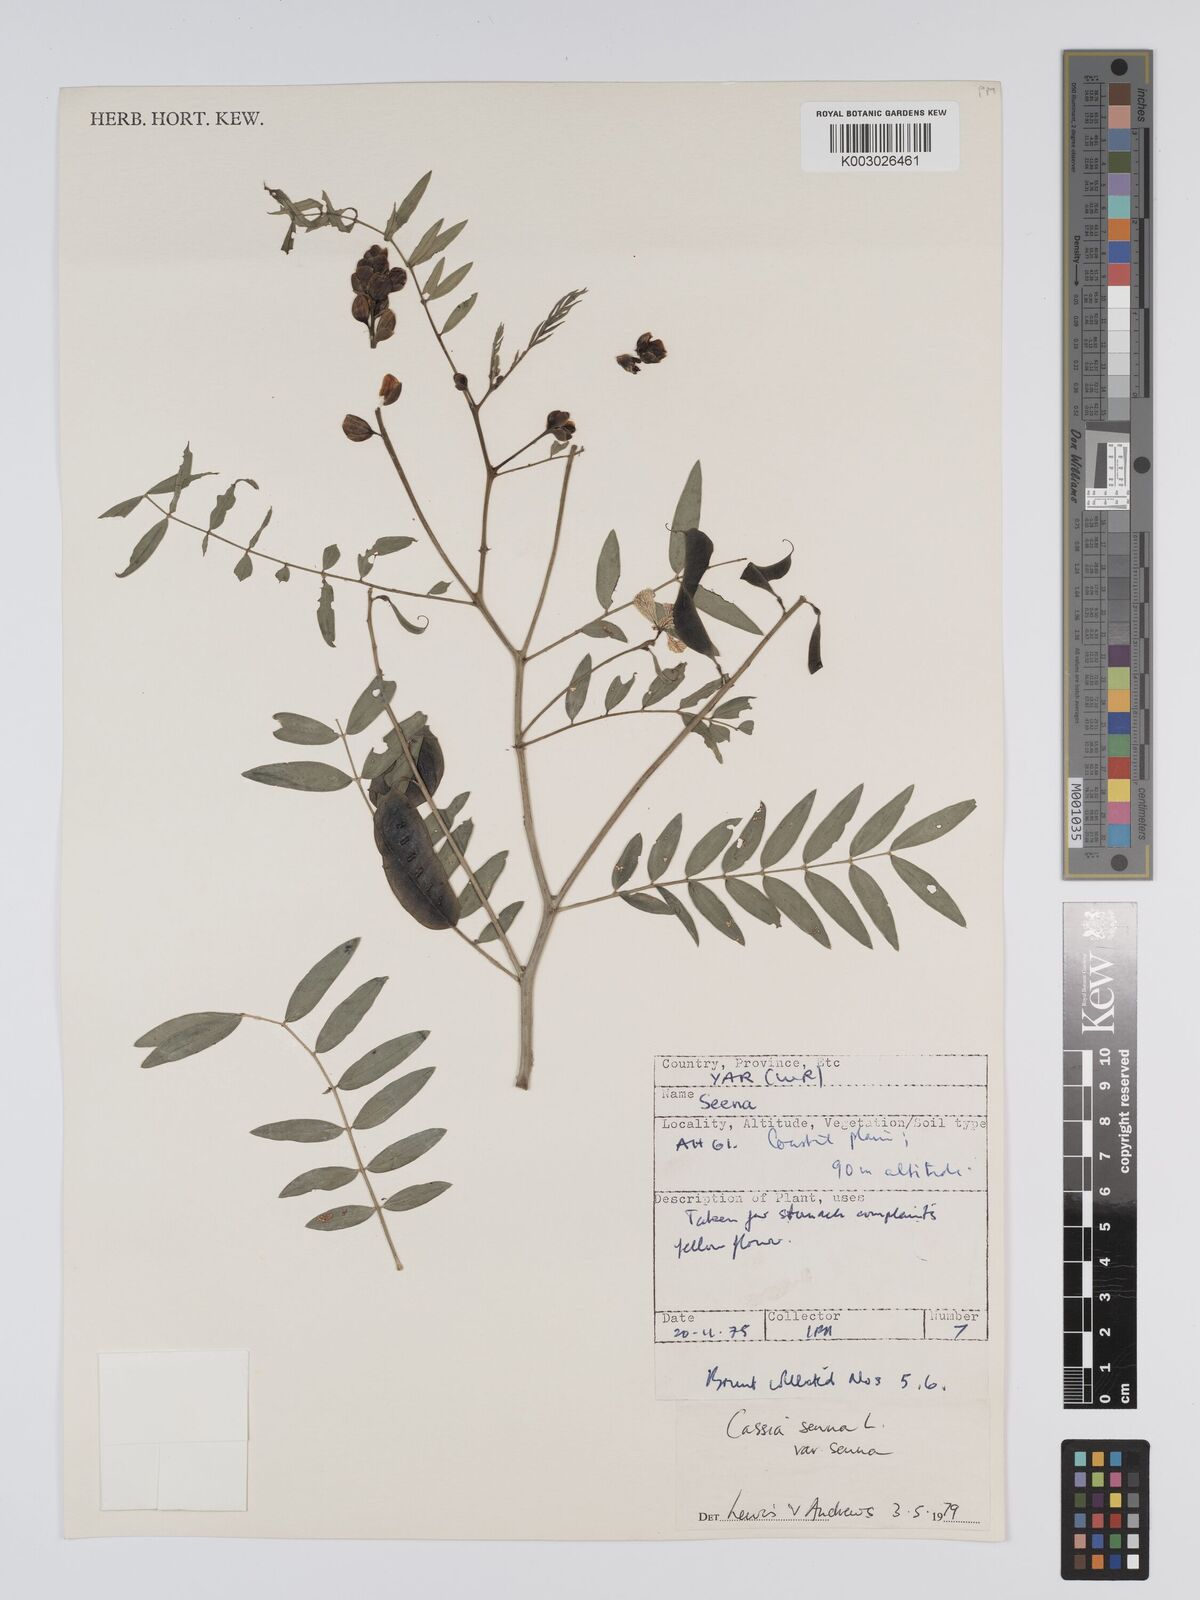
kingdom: Plantae
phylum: Tracheophyta
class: Magnoliopsida
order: Fabales
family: Fabaceae
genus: Senna
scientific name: Senna alexandrina
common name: True senna
